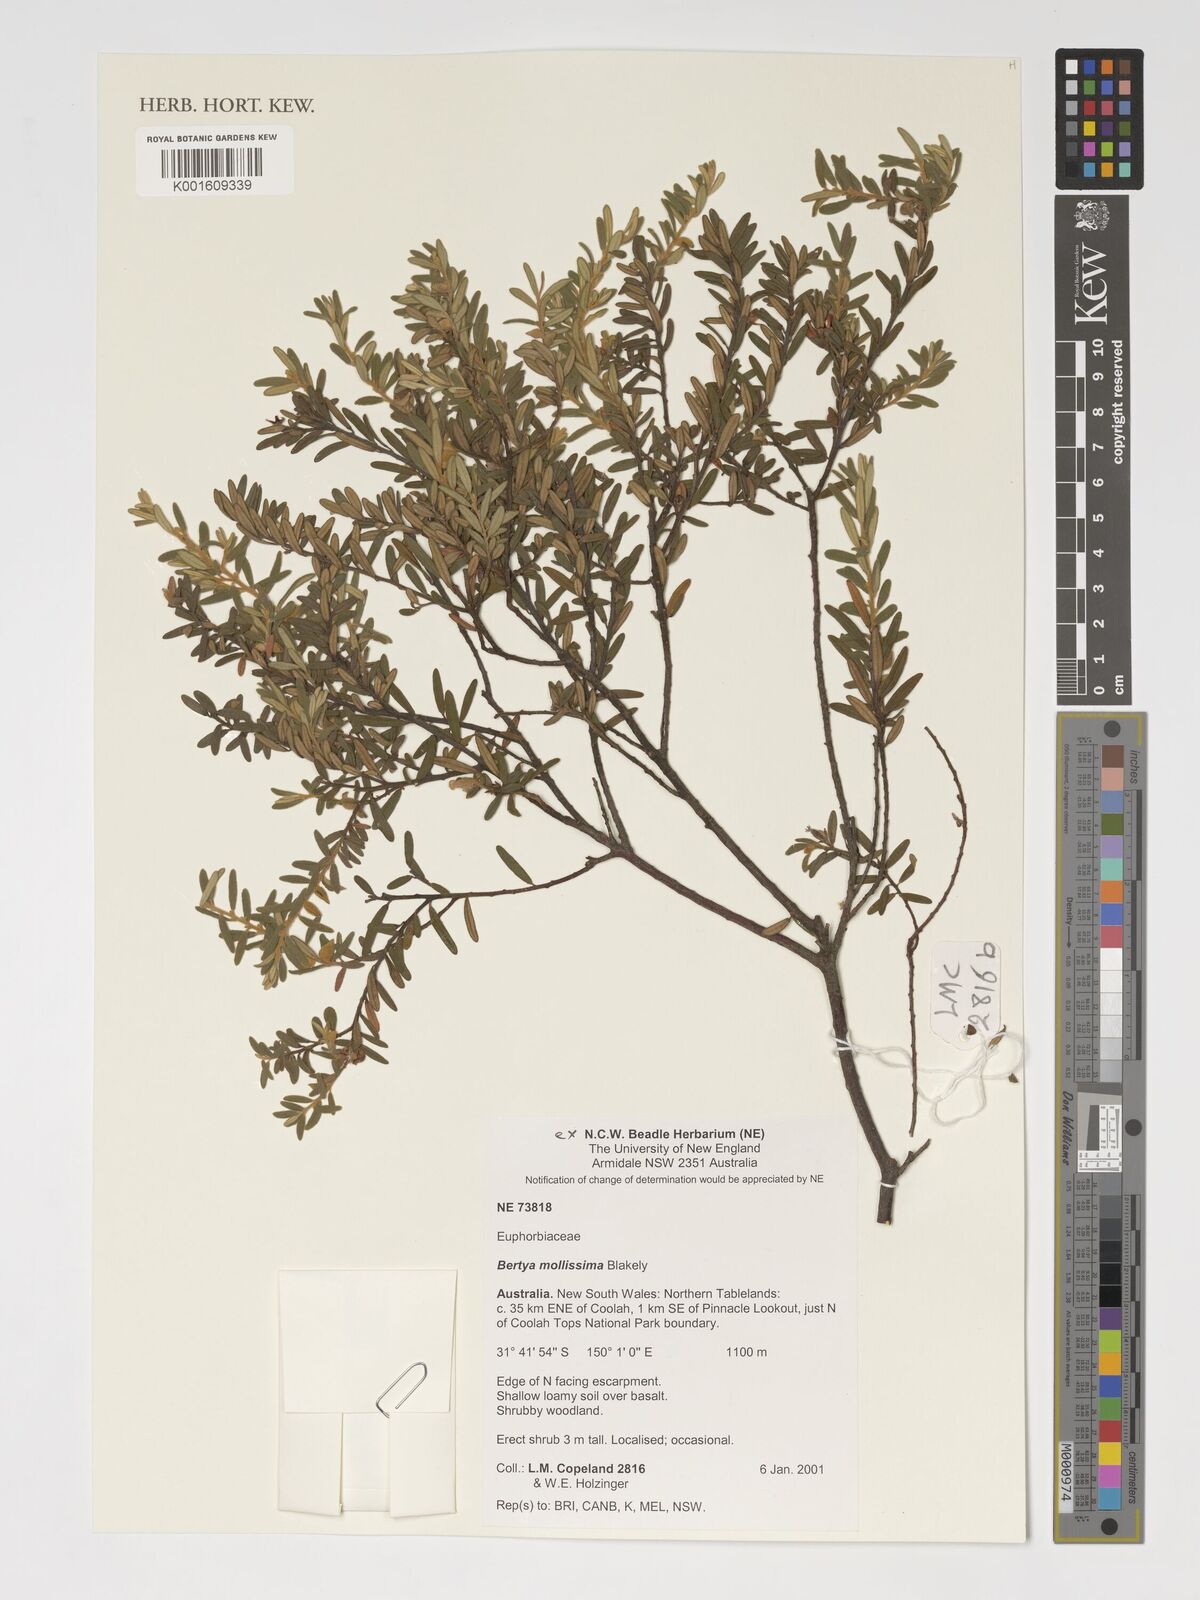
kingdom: Plantae
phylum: Tracheophyta
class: Magnoliopsida
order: Malpighiales
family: Euphorbiaceae
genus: Bertya
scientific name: Bertya mollissima
